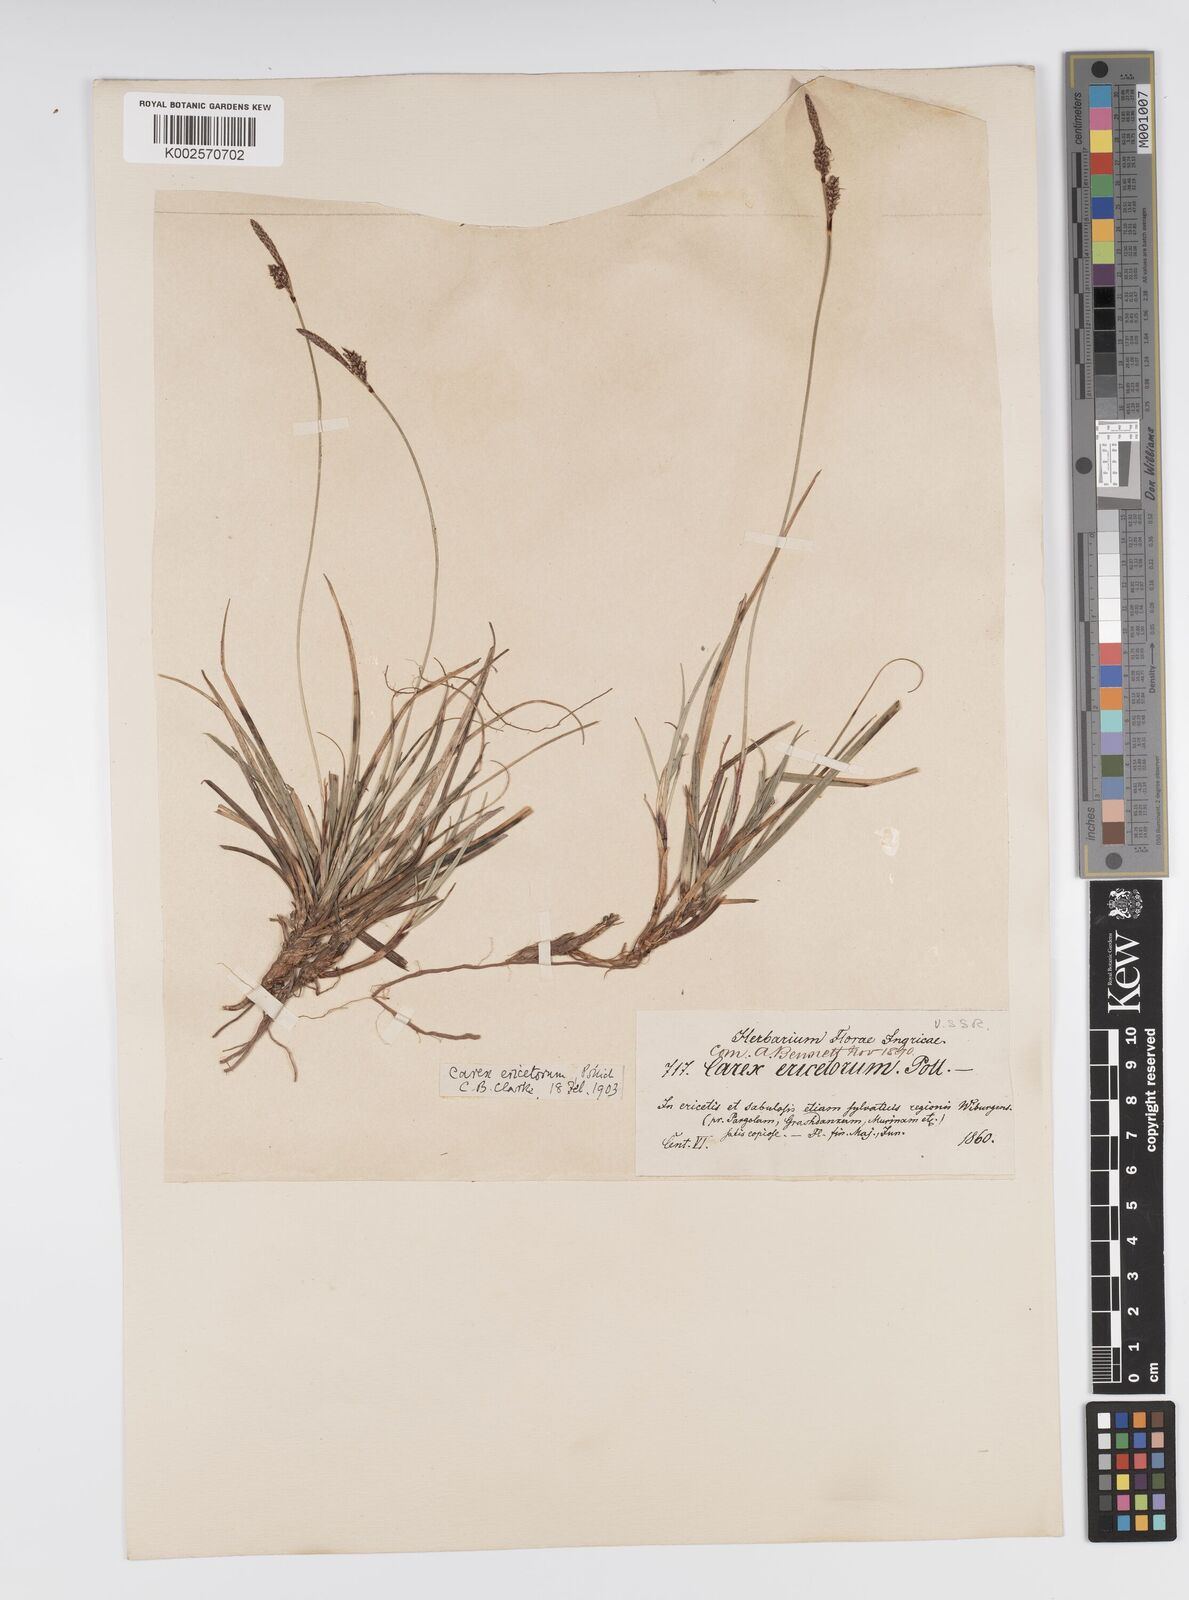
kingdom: Plantae
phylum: Tracheophyta
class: Liliopsida
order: Poales
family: Cyperaceae
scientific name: Cyperaceae
